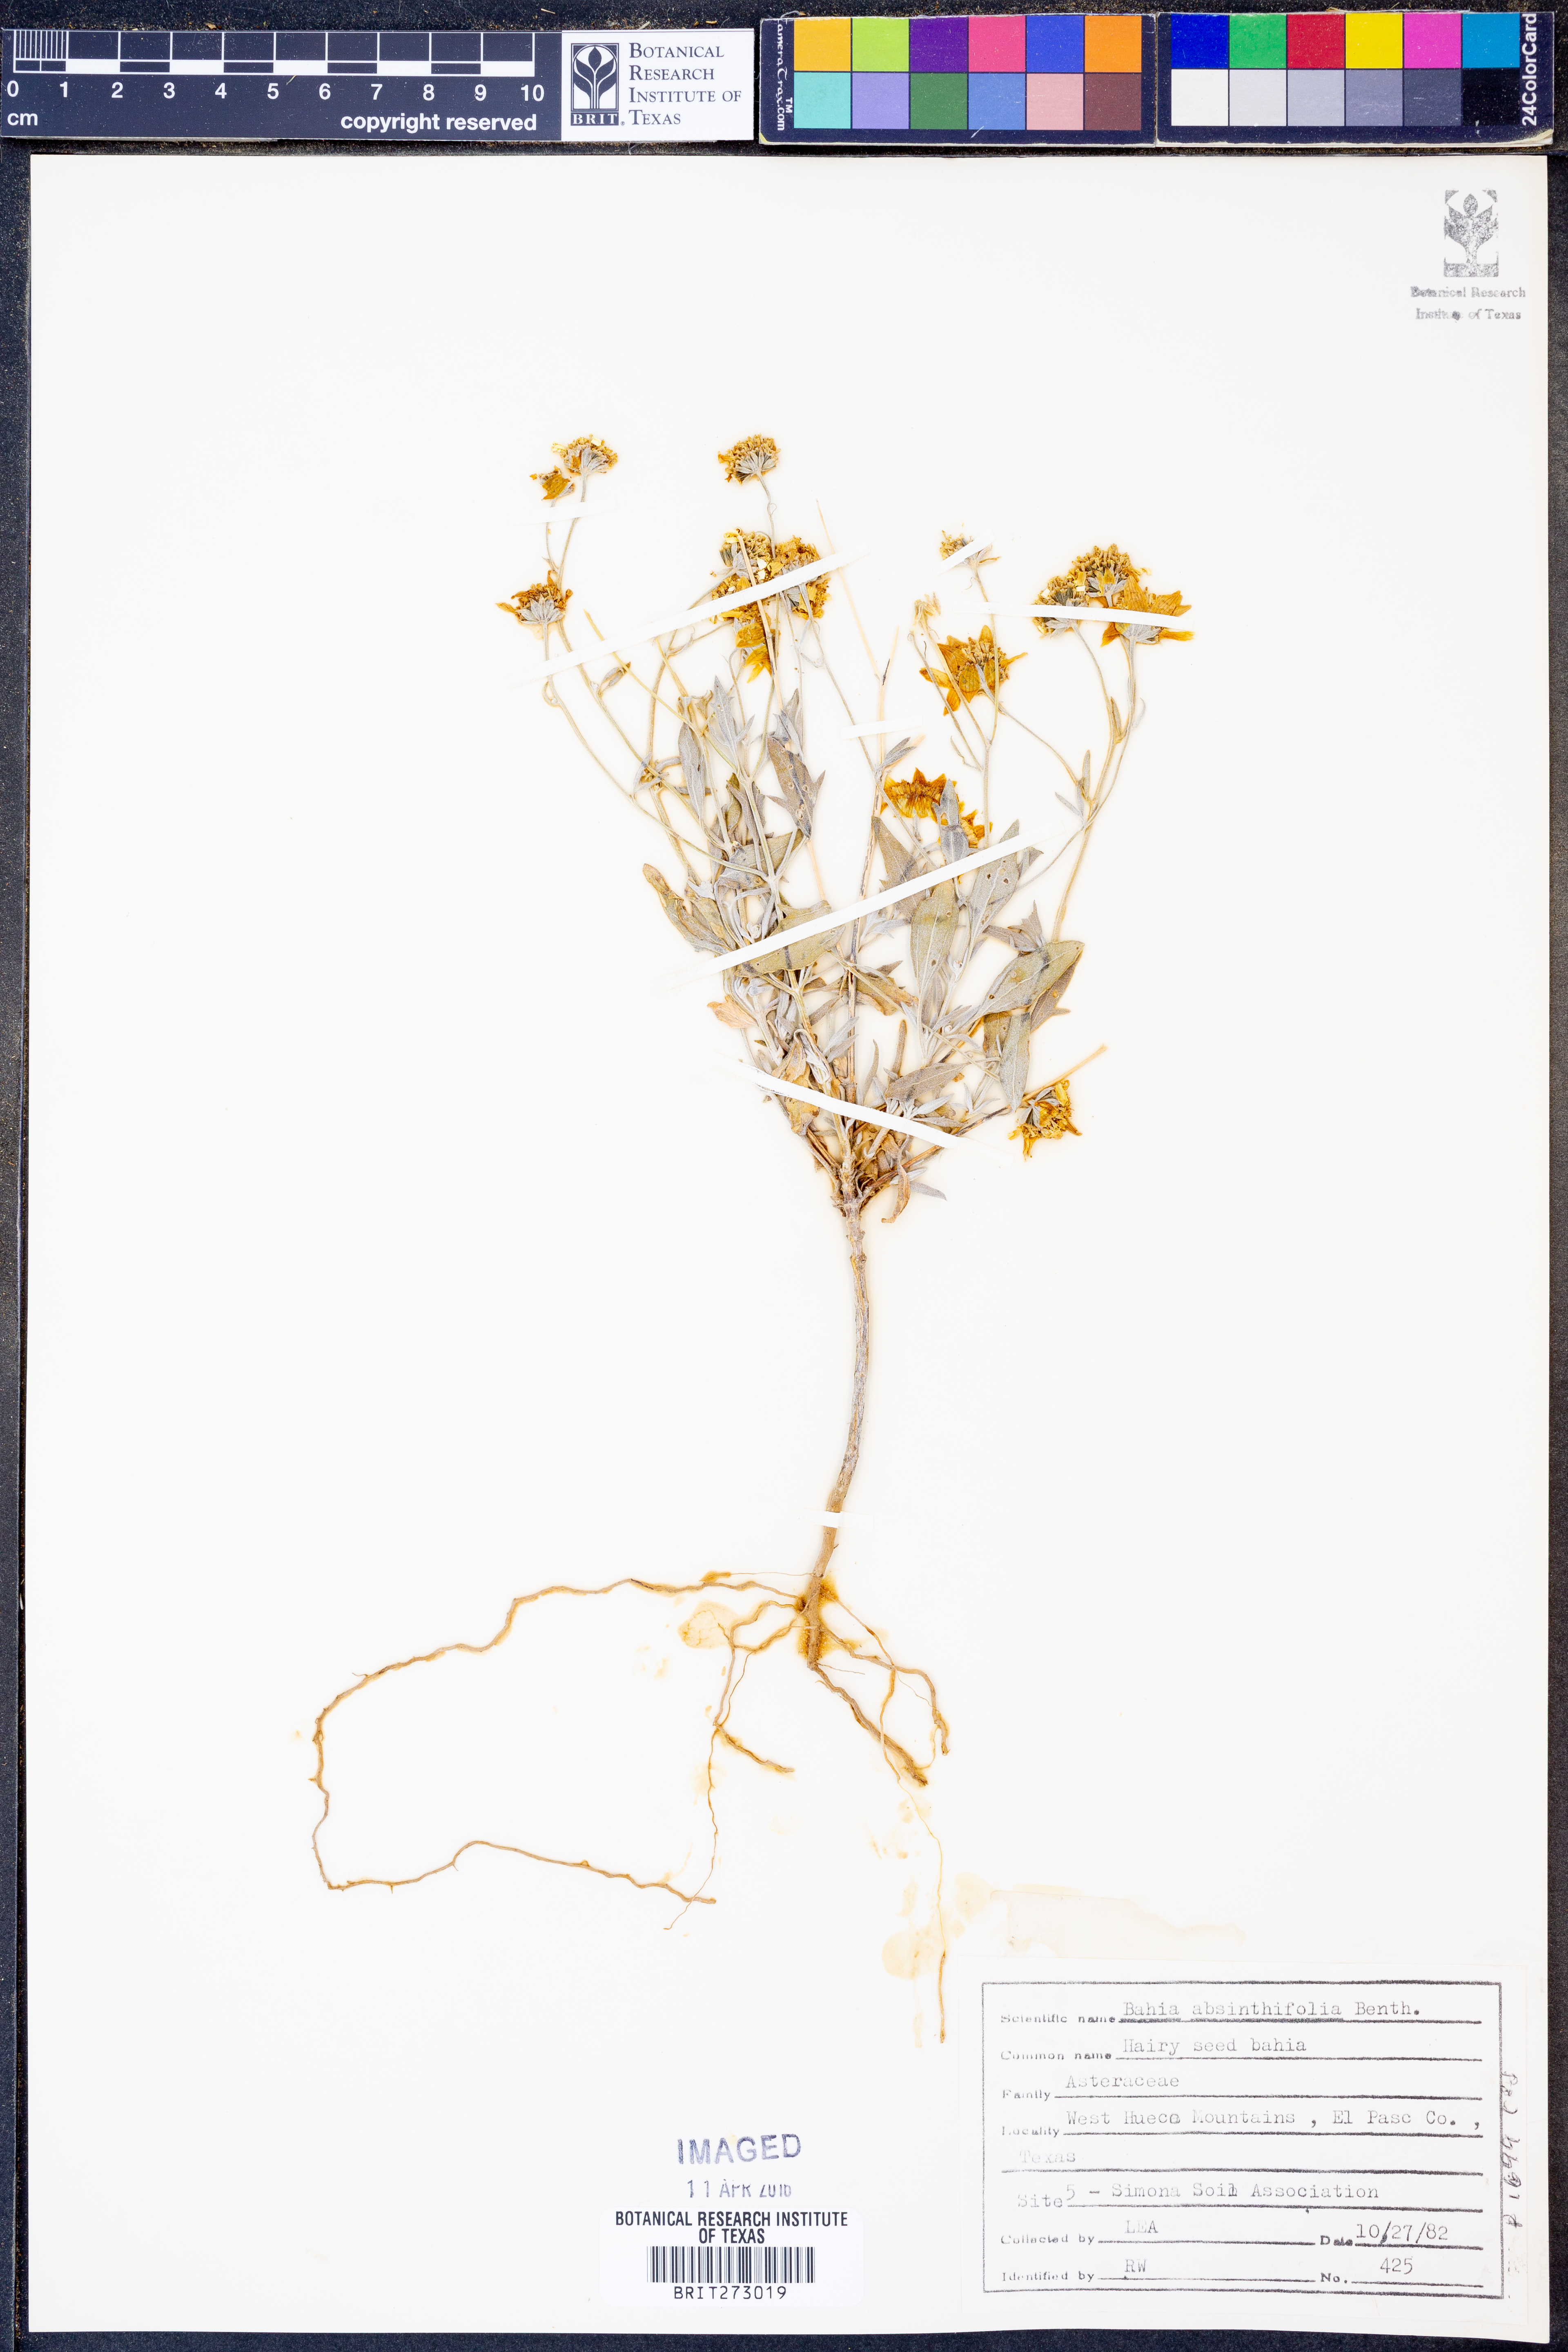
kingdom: Plantae
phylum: Tracheophyta
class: Magnoliopsida
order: Asterales
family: Asteraceae
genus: Picradeniopsis
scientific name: Picradeniopsis absinthifolia
